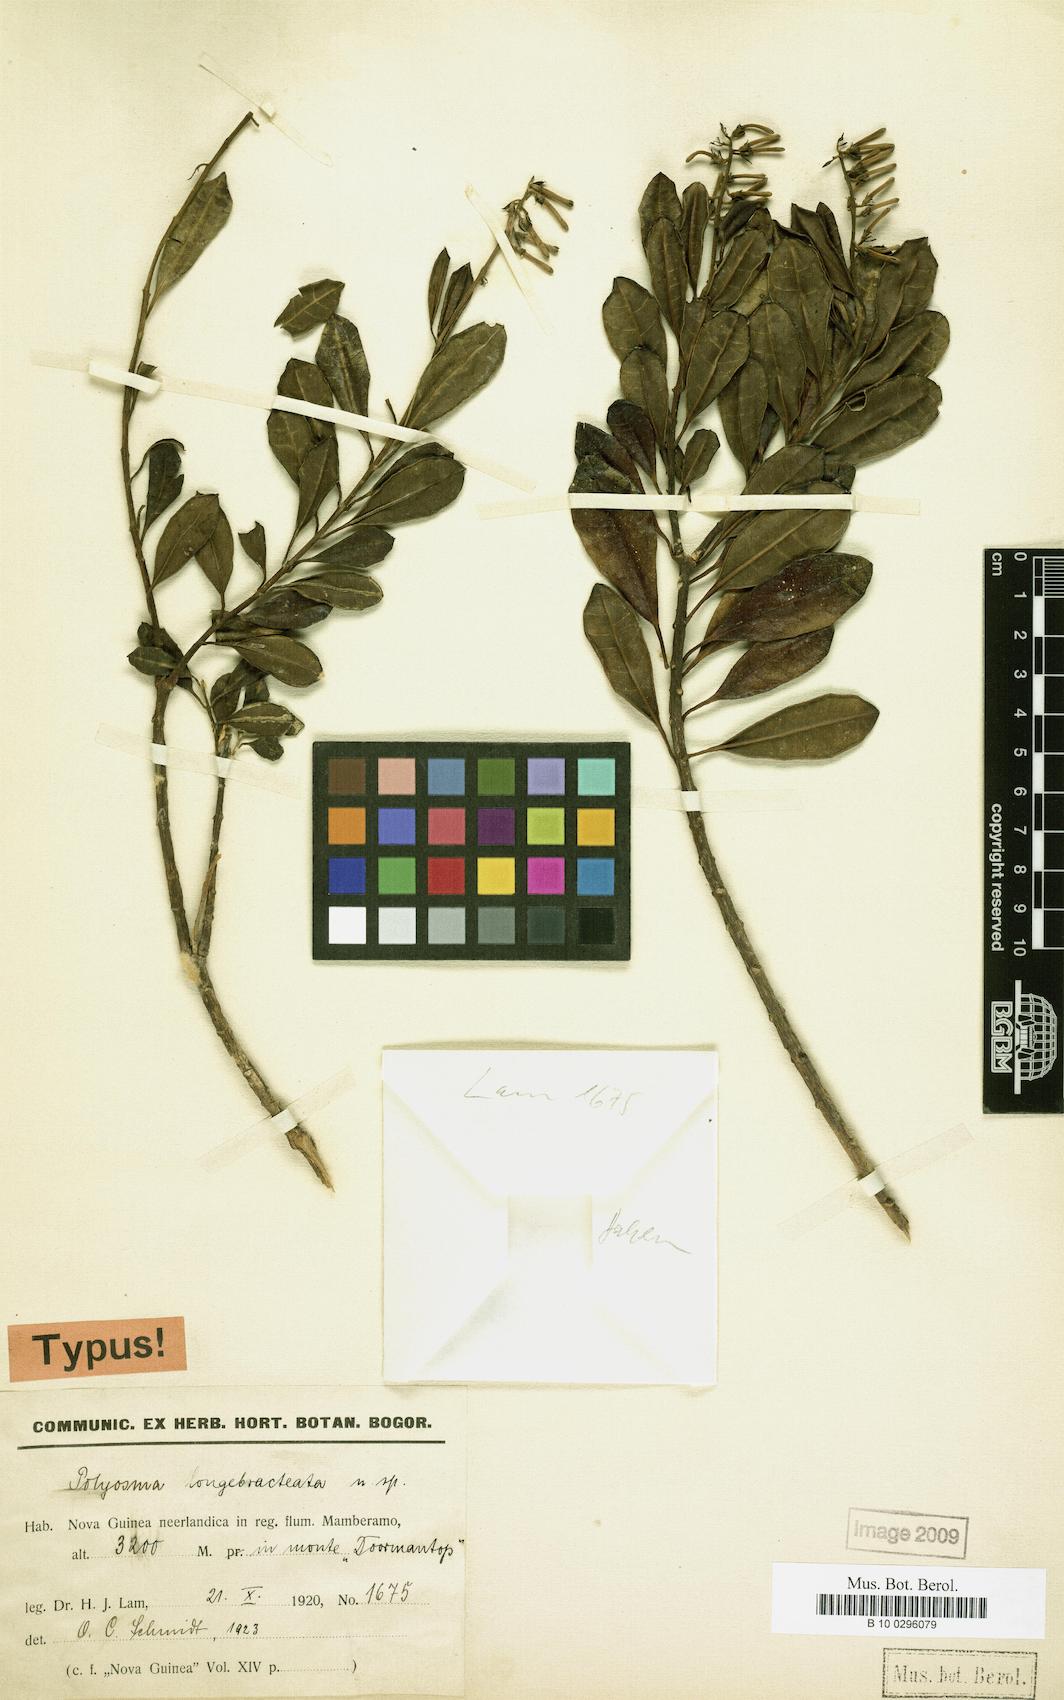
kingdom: Plantae
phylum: Tracheophyta
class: Magnoliopsida
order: Escalloniales
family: Escalloniaceae
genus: Polyosma
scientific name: Polyosma longebracteolata
